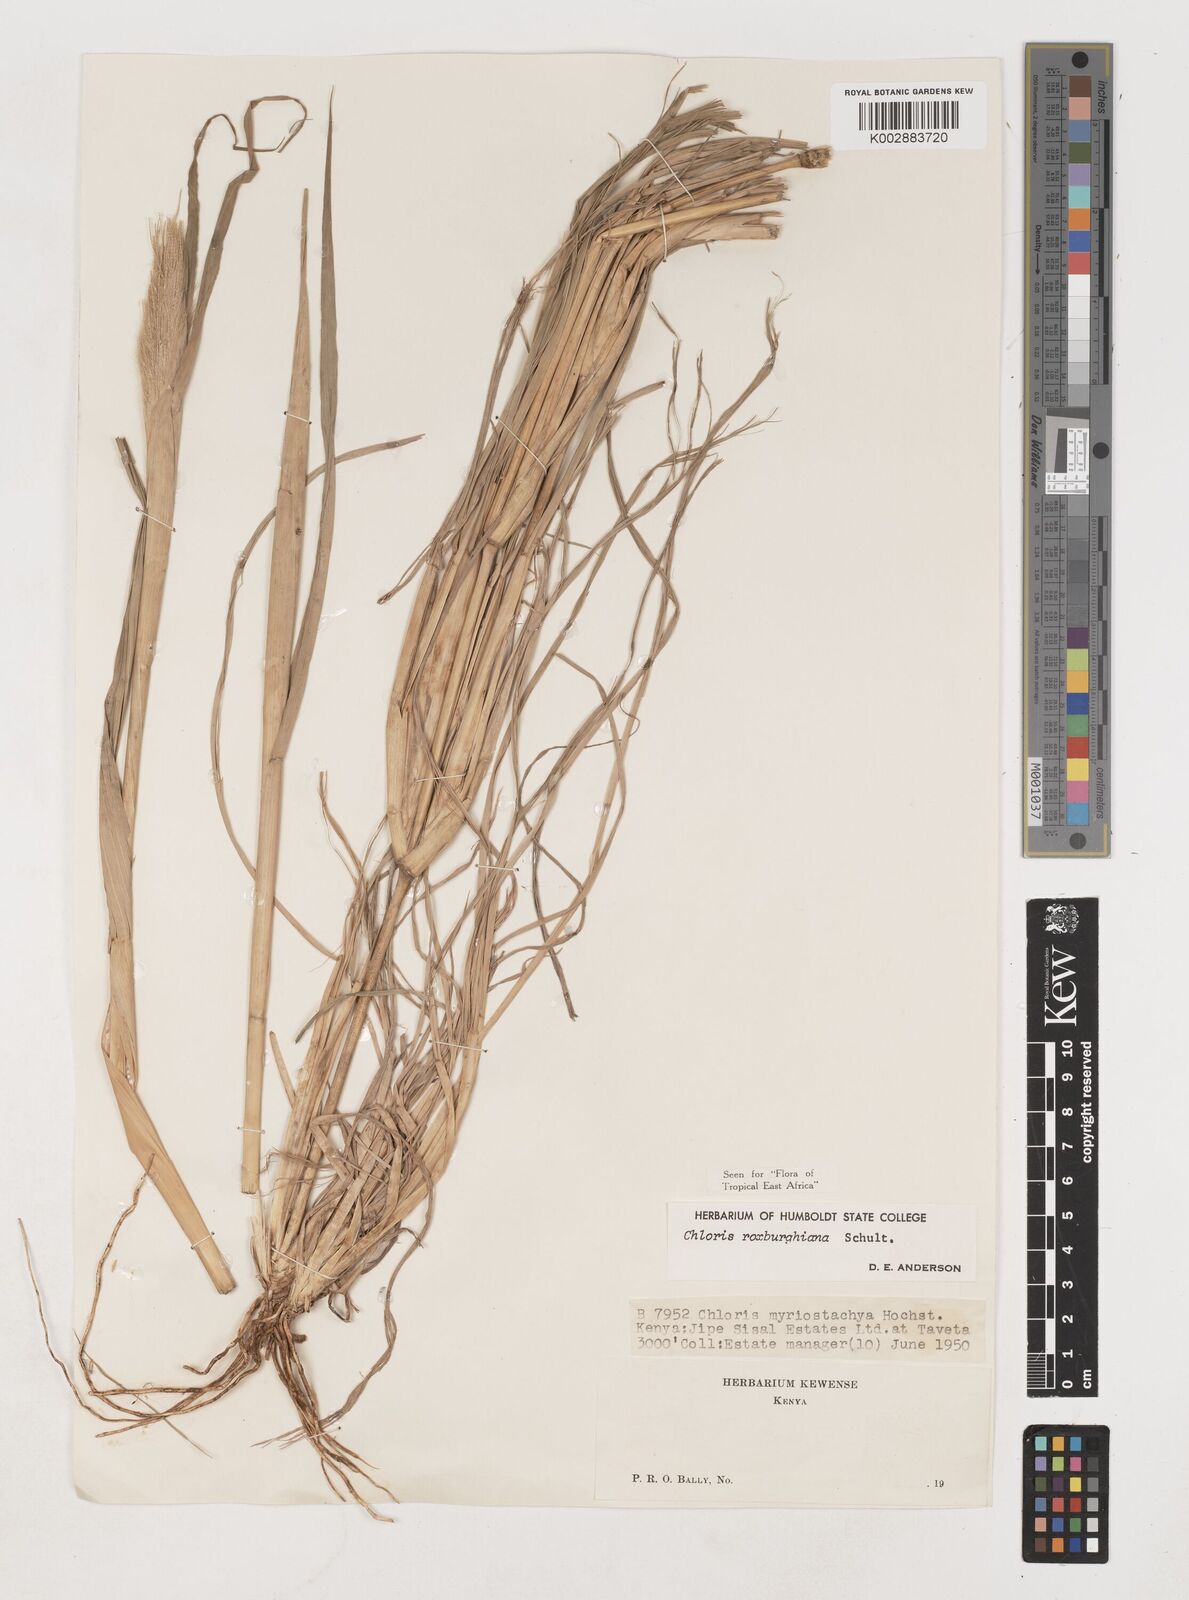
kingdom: Plantae
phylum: Tracheophyta
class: Liliopsida
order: Poales
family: Poaceae
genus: Tetrapogon
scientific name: Tetrapogon roxburghiana
